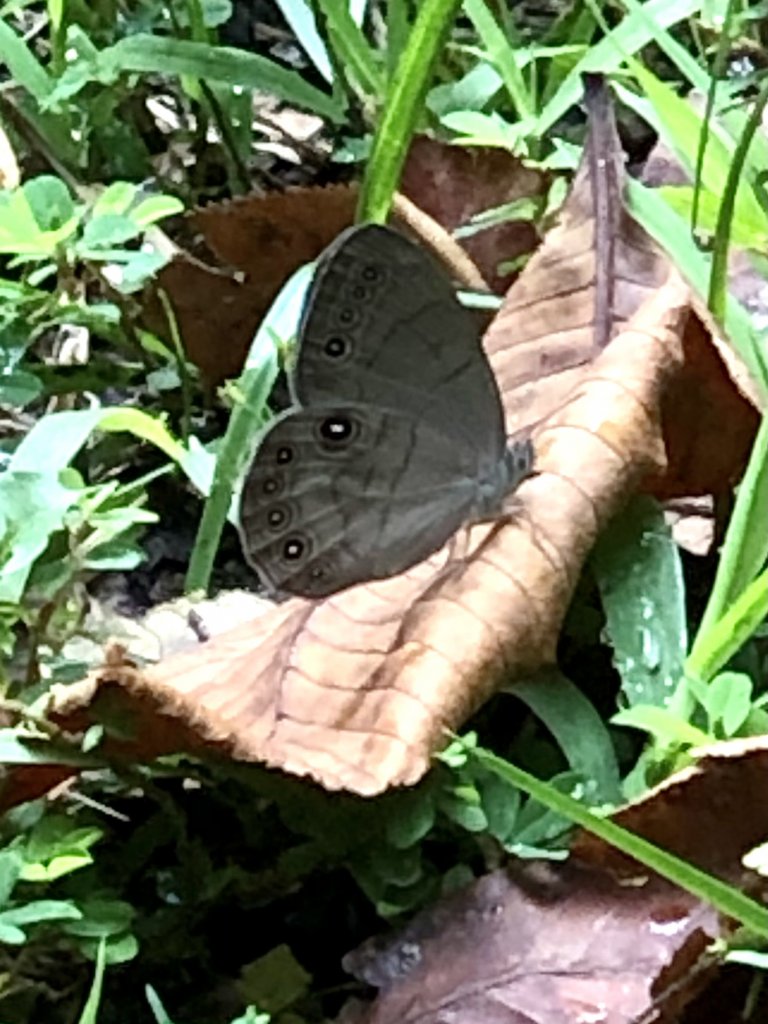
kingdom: Animalia
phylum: Arthropoda
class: Insecta
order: Lepidoptera
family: Nymphalidae
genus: Lethe
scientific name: Lethe eurydice
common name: Appalachian Eyed Brown
